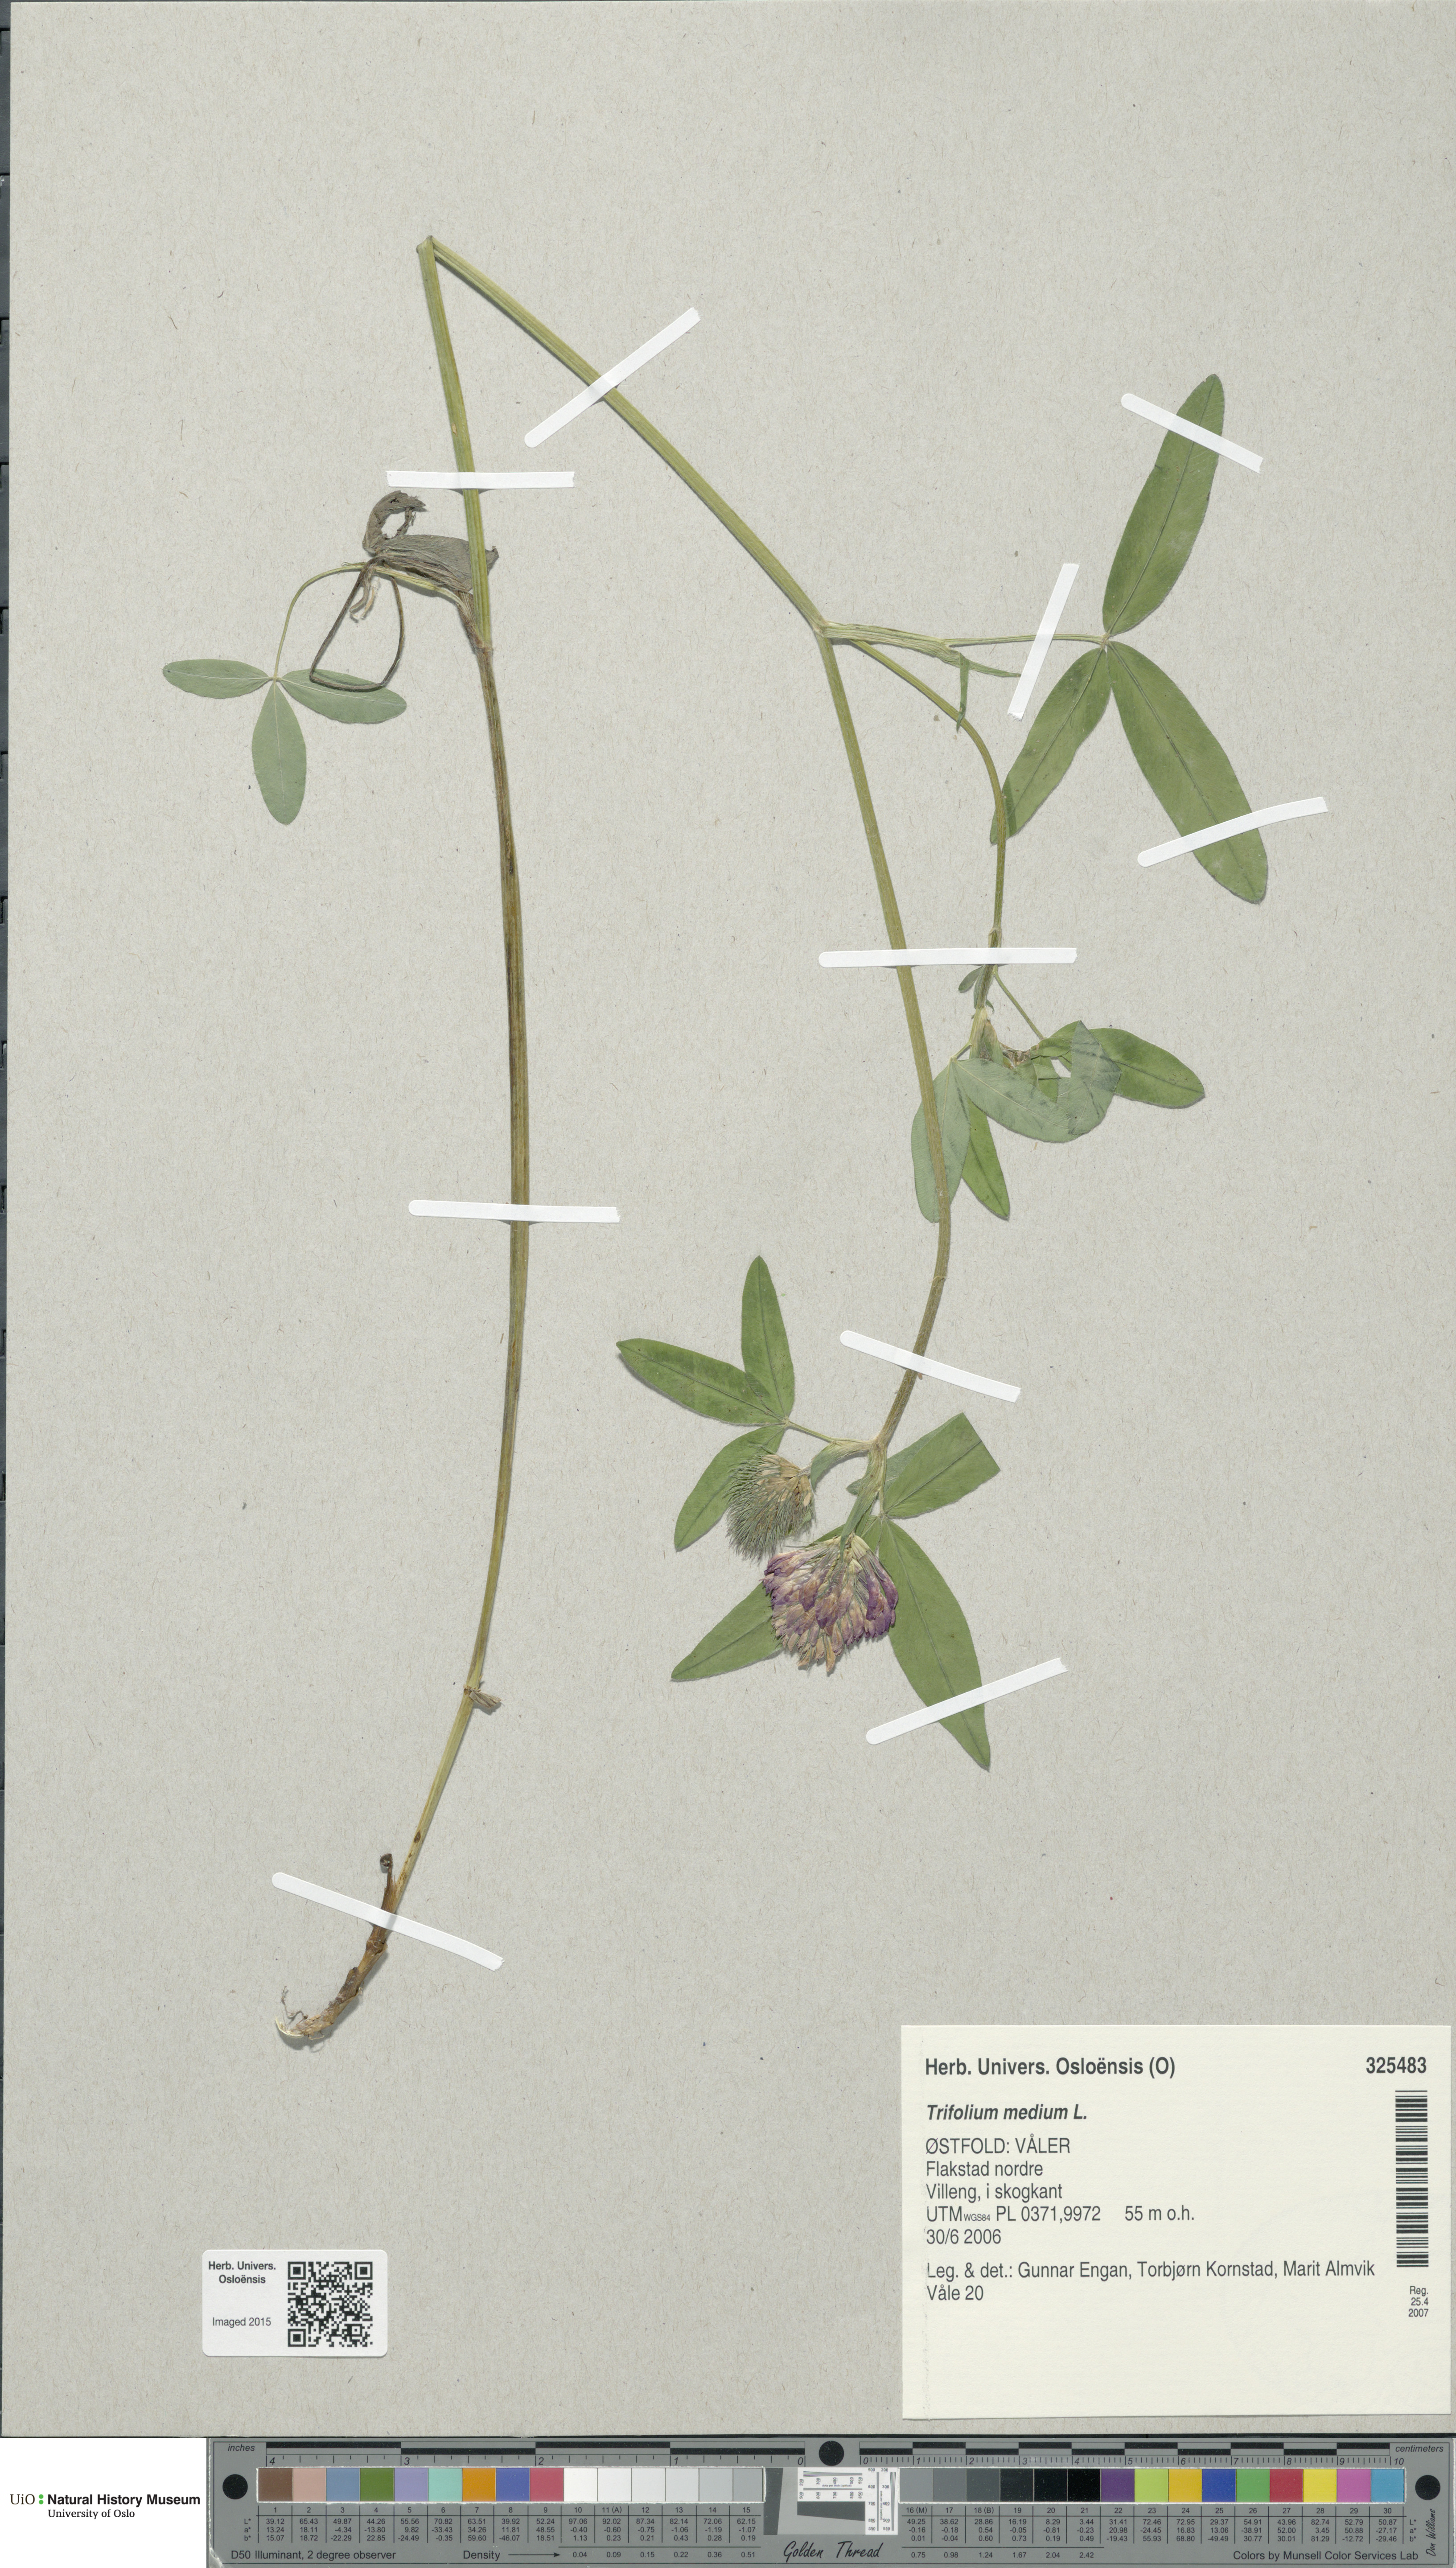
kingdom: Plantae
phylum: Tracheophyta
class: Magnoliopsida
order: Fabales
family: Fabaceae
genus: Trifolium
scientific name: Trifolium medium
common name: Zigzag clover
